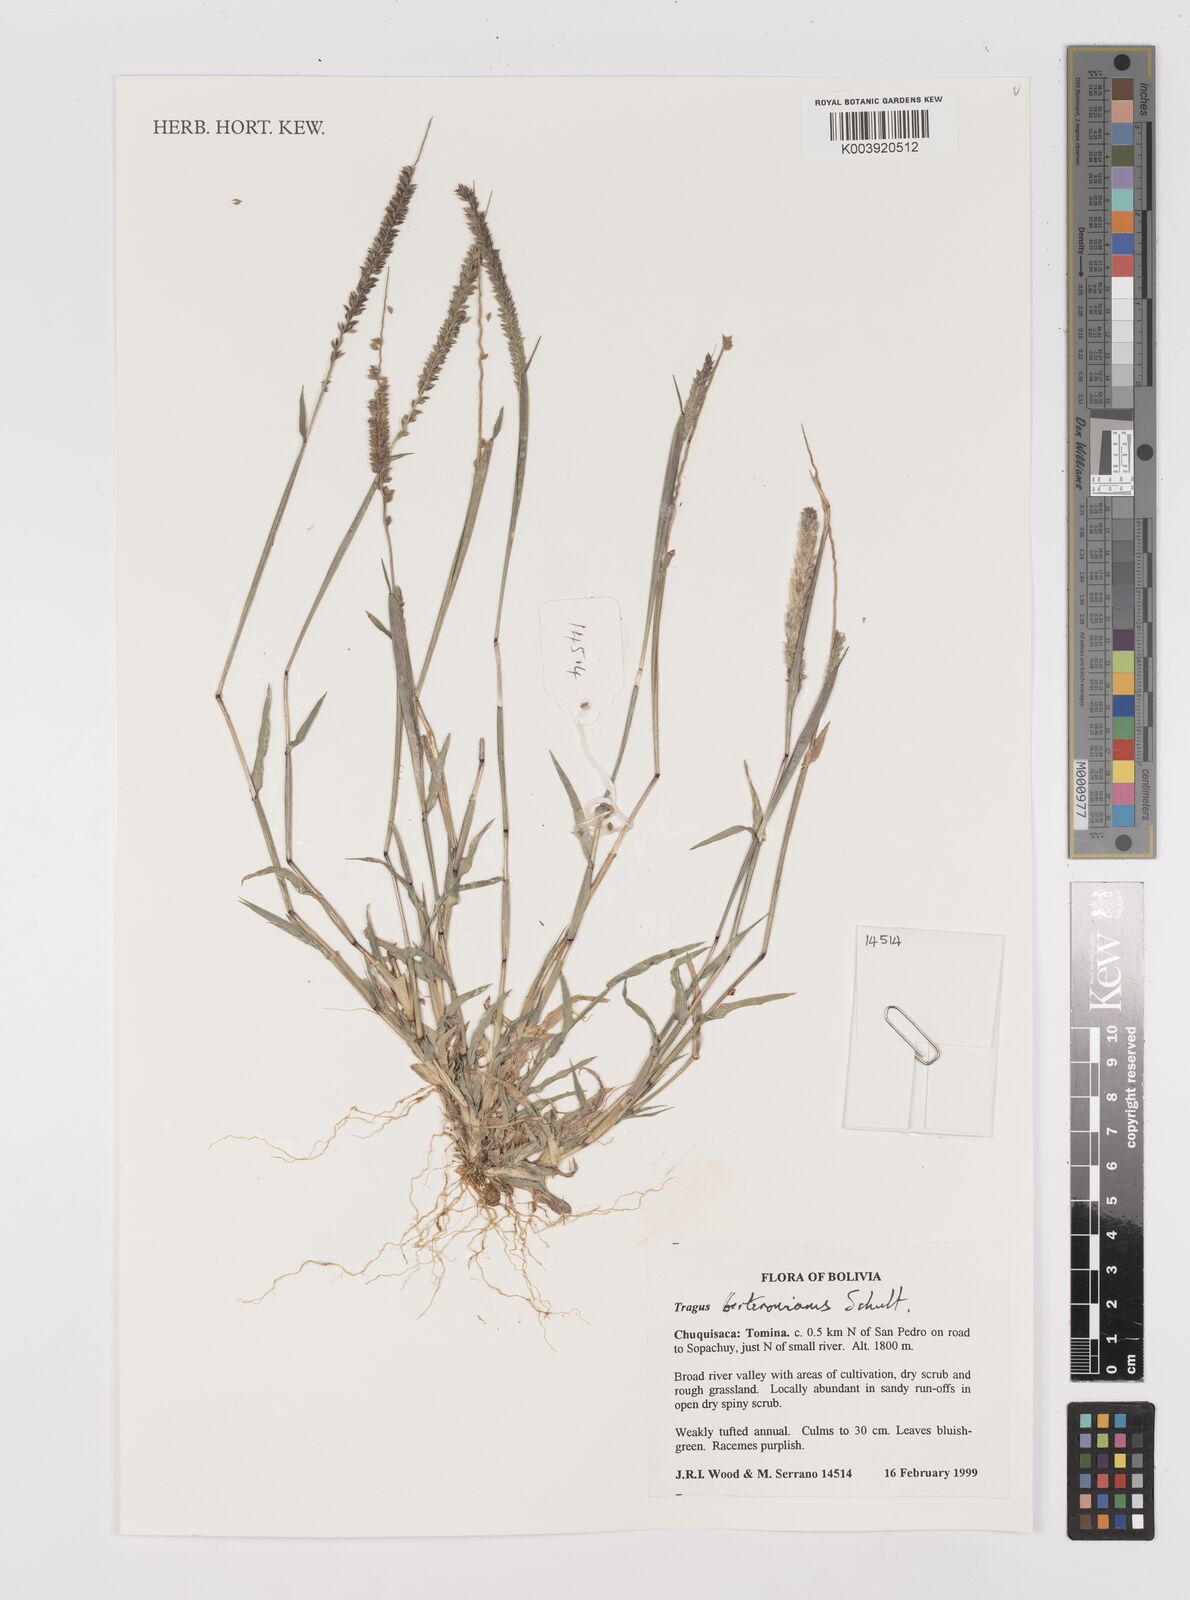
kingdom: Plantae
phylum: Tracheophyta
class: Liliopsida
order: Poales
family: Poaceae
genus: Tragus
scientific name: Tragus berteronianus
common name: African bur-grass
